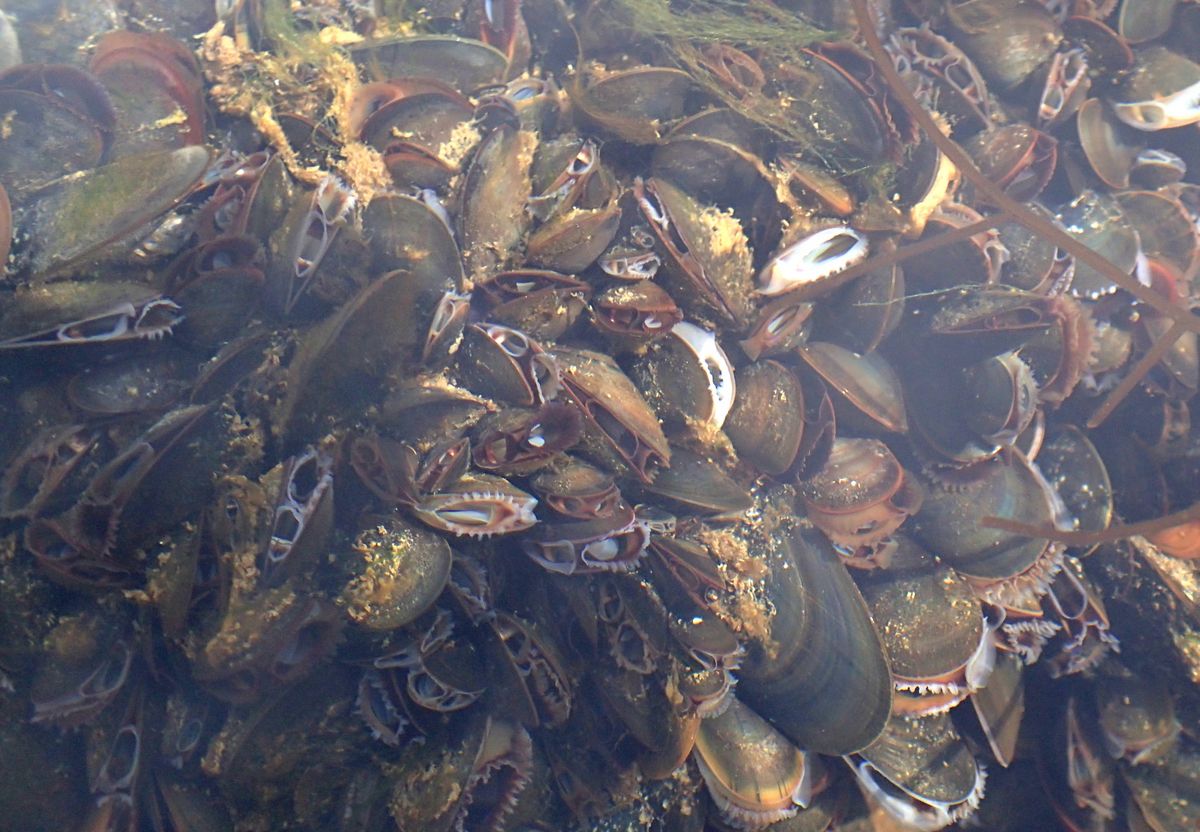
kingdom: Animalia
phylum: Mollusca
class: Bivalvia
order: Mytilida
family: Mytilidae
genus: Mytilus
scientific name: Mytilus edulis
